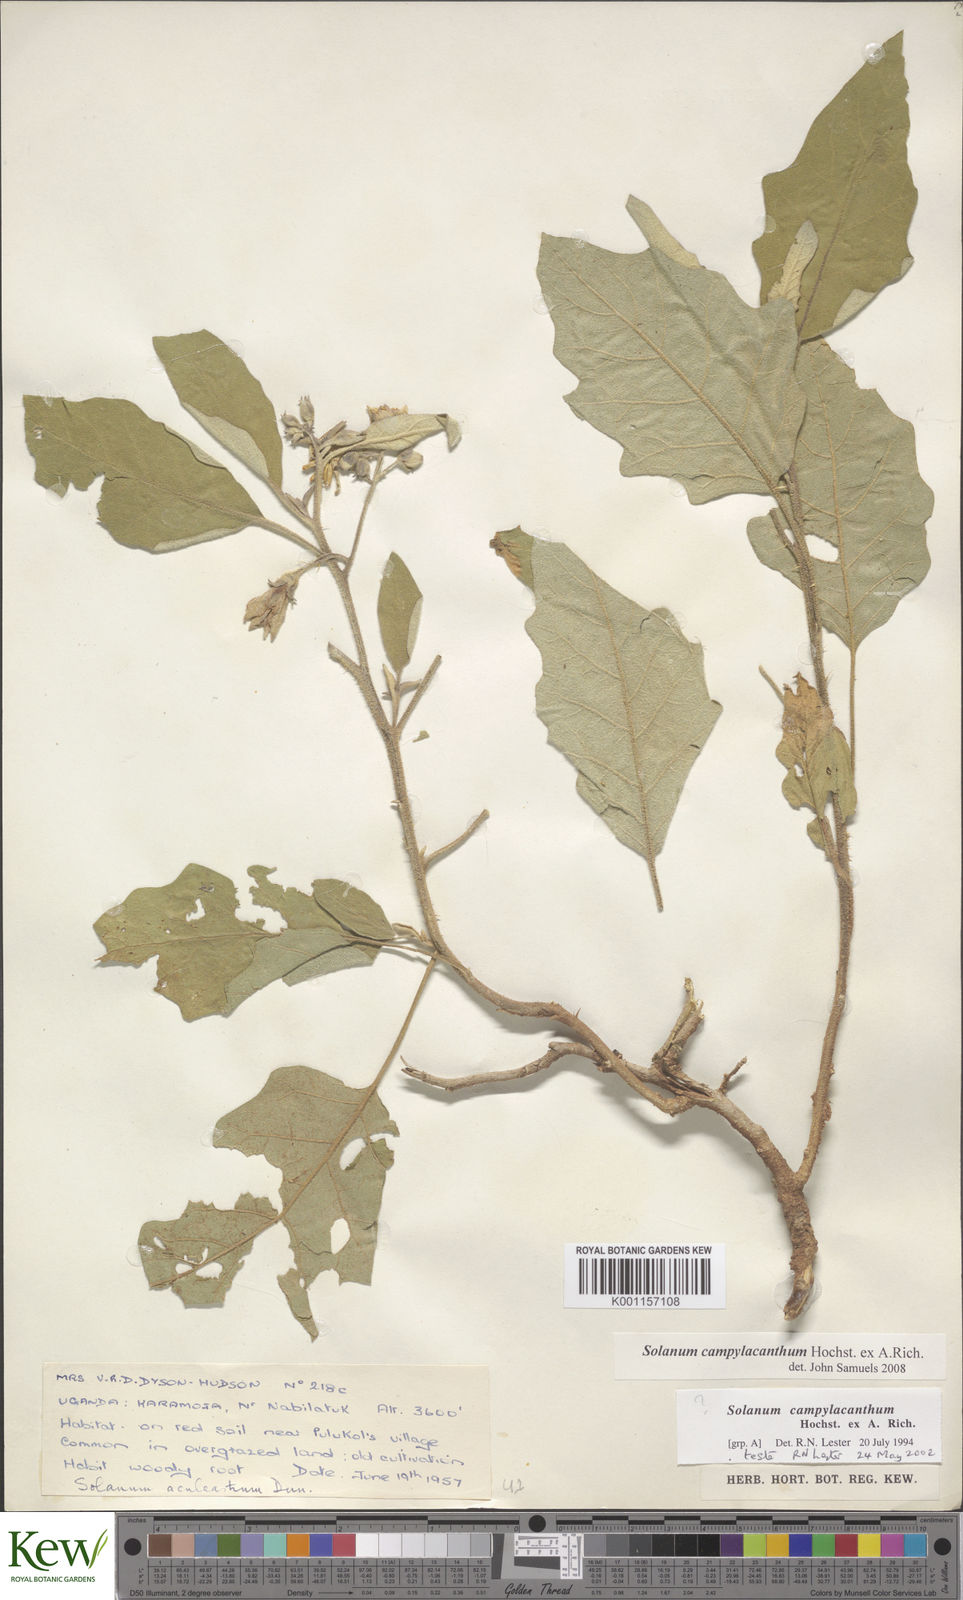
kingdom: Plantae
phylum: Tracheophyta
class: Magnoliopsida
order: Solanales
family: Solanaceae
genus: Solanum
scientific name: Solanum campylacanthum
